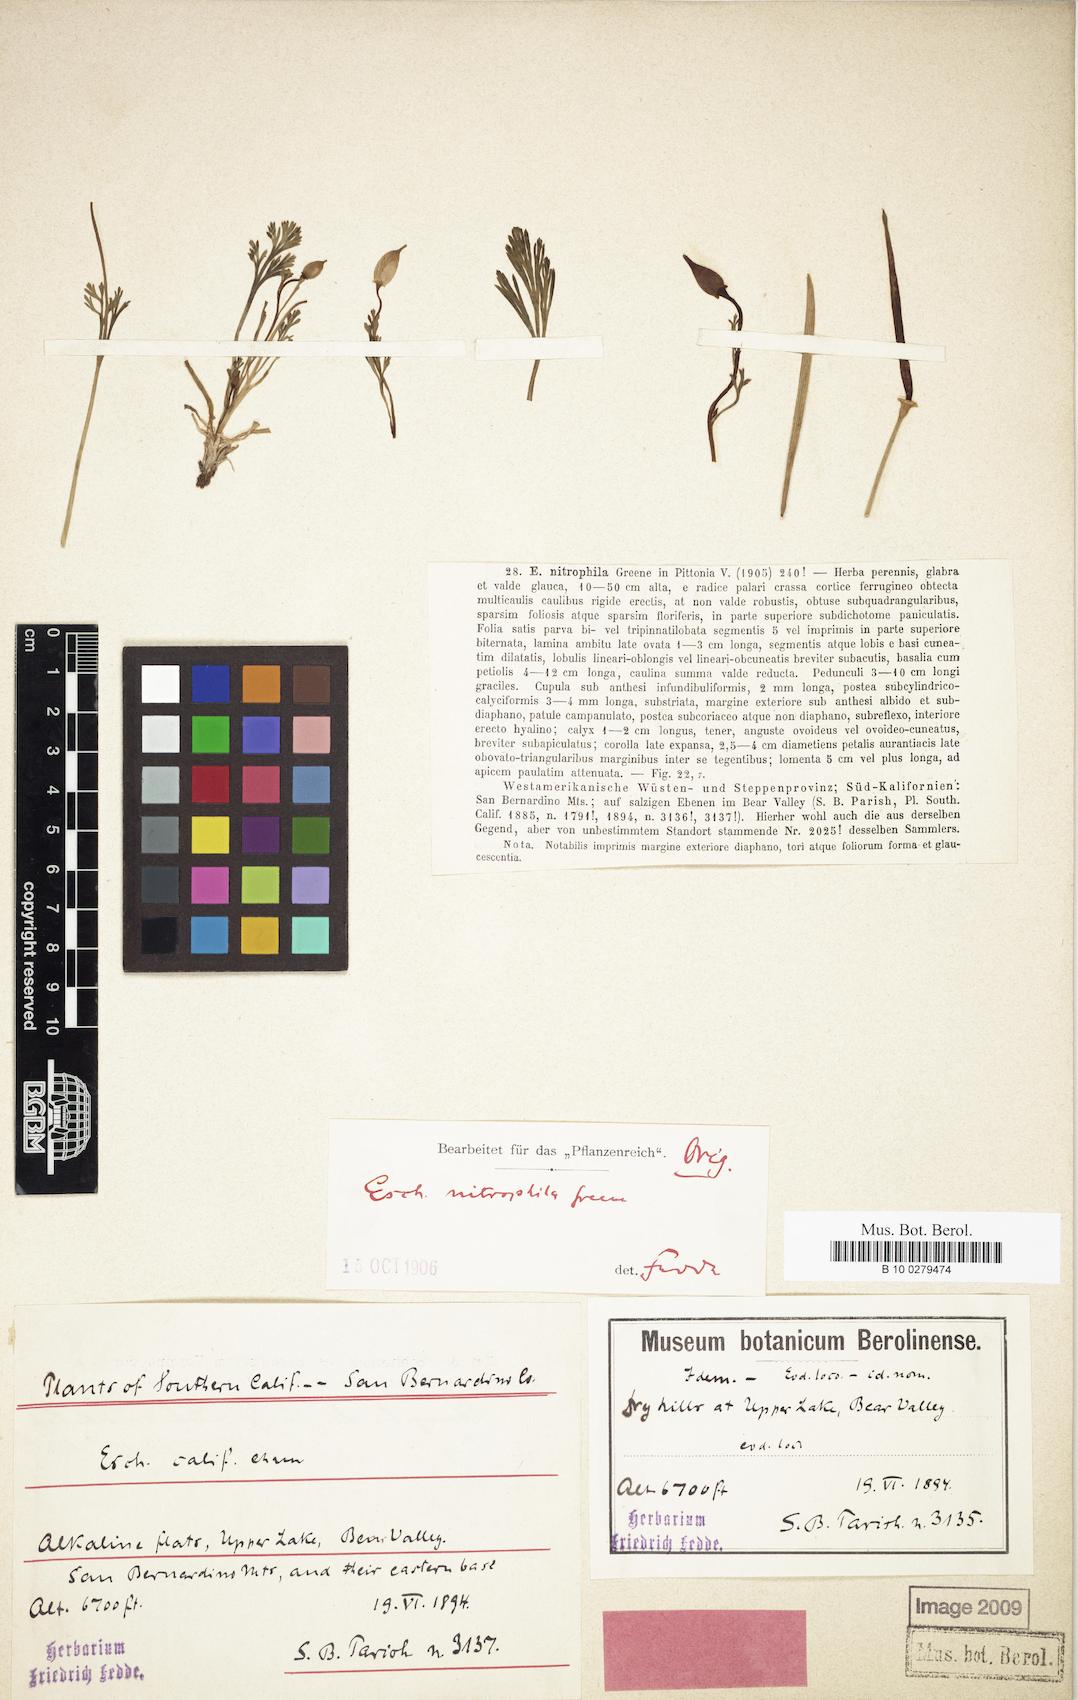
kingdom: Plantae
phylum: Tracheophyta
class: Magnoliopsida
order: Ranunculales
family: Papaveraceae
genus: Eschscholzia
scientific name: Eschscholzia californica
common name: California poppy
